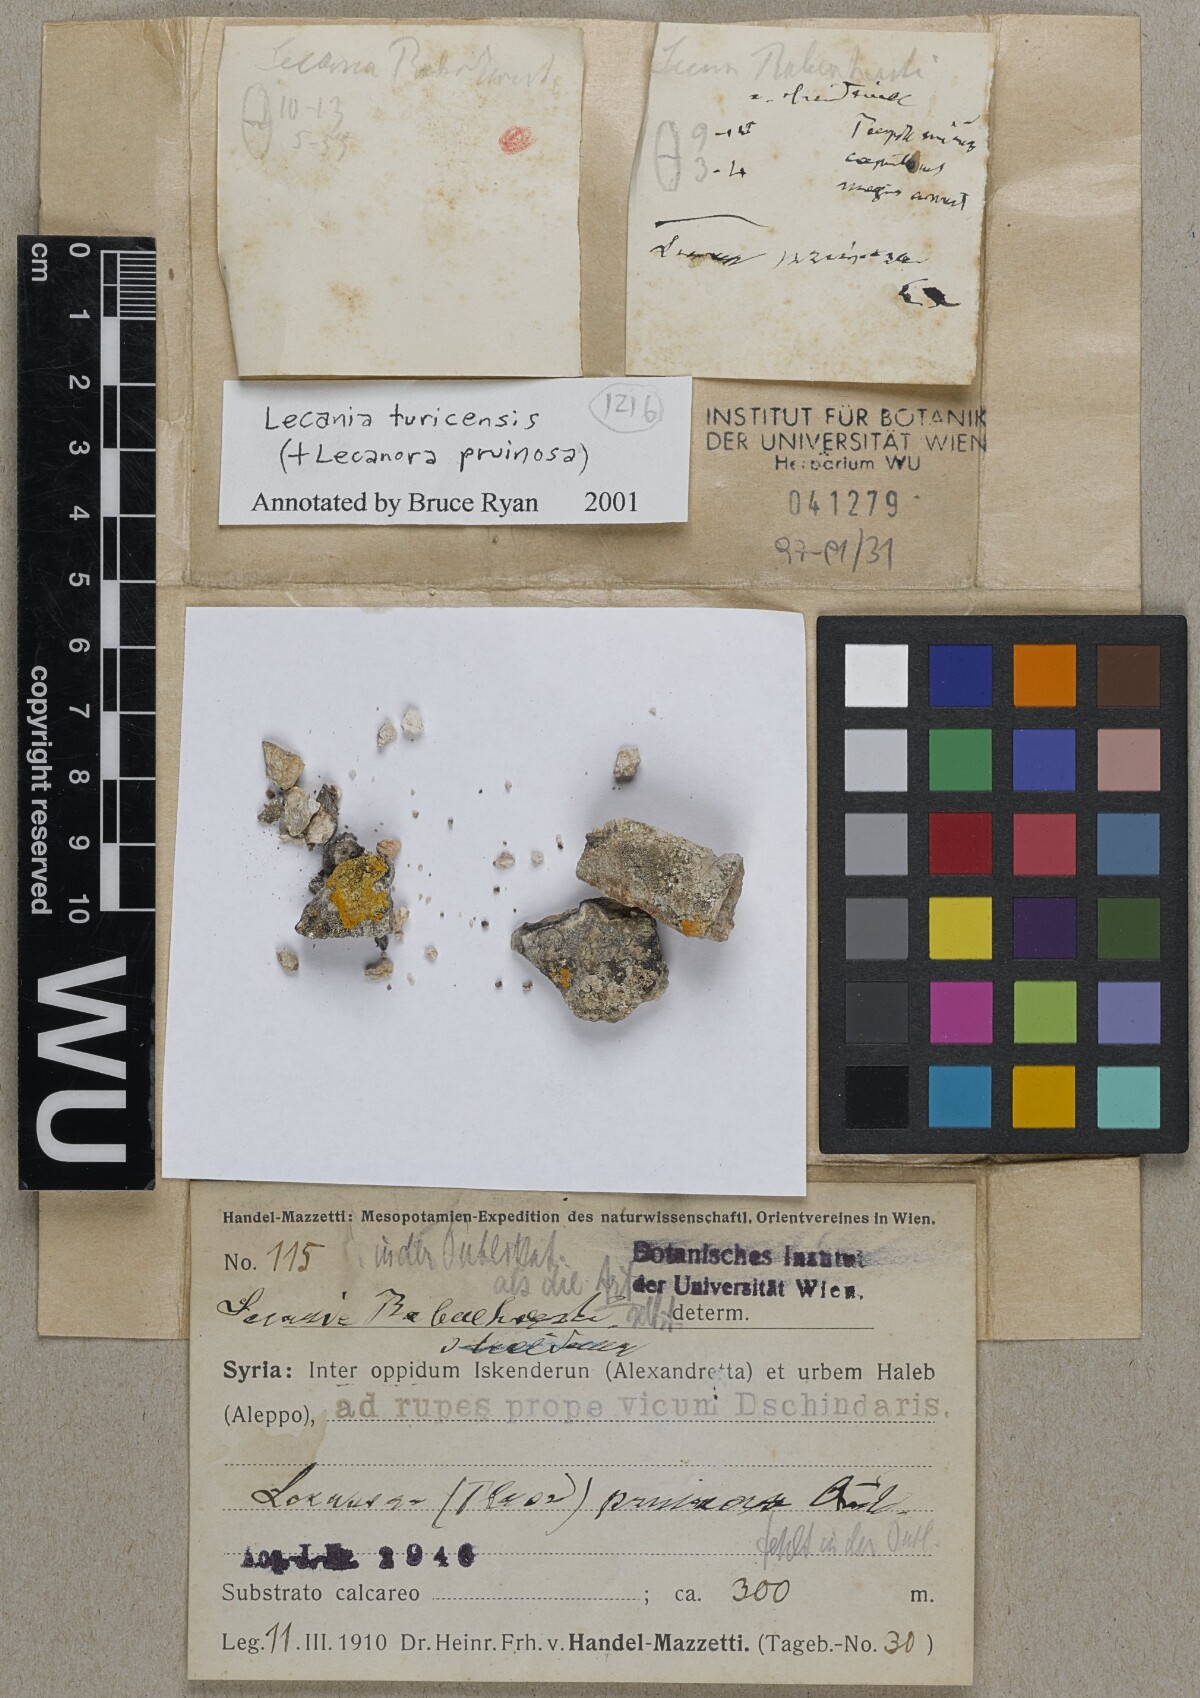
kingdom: Fungi
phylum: Ascomycota
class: Lecanoromycetes
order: Lecanorales
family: Ramalinaceae
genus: Lecania
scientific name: Lecania turicensis
